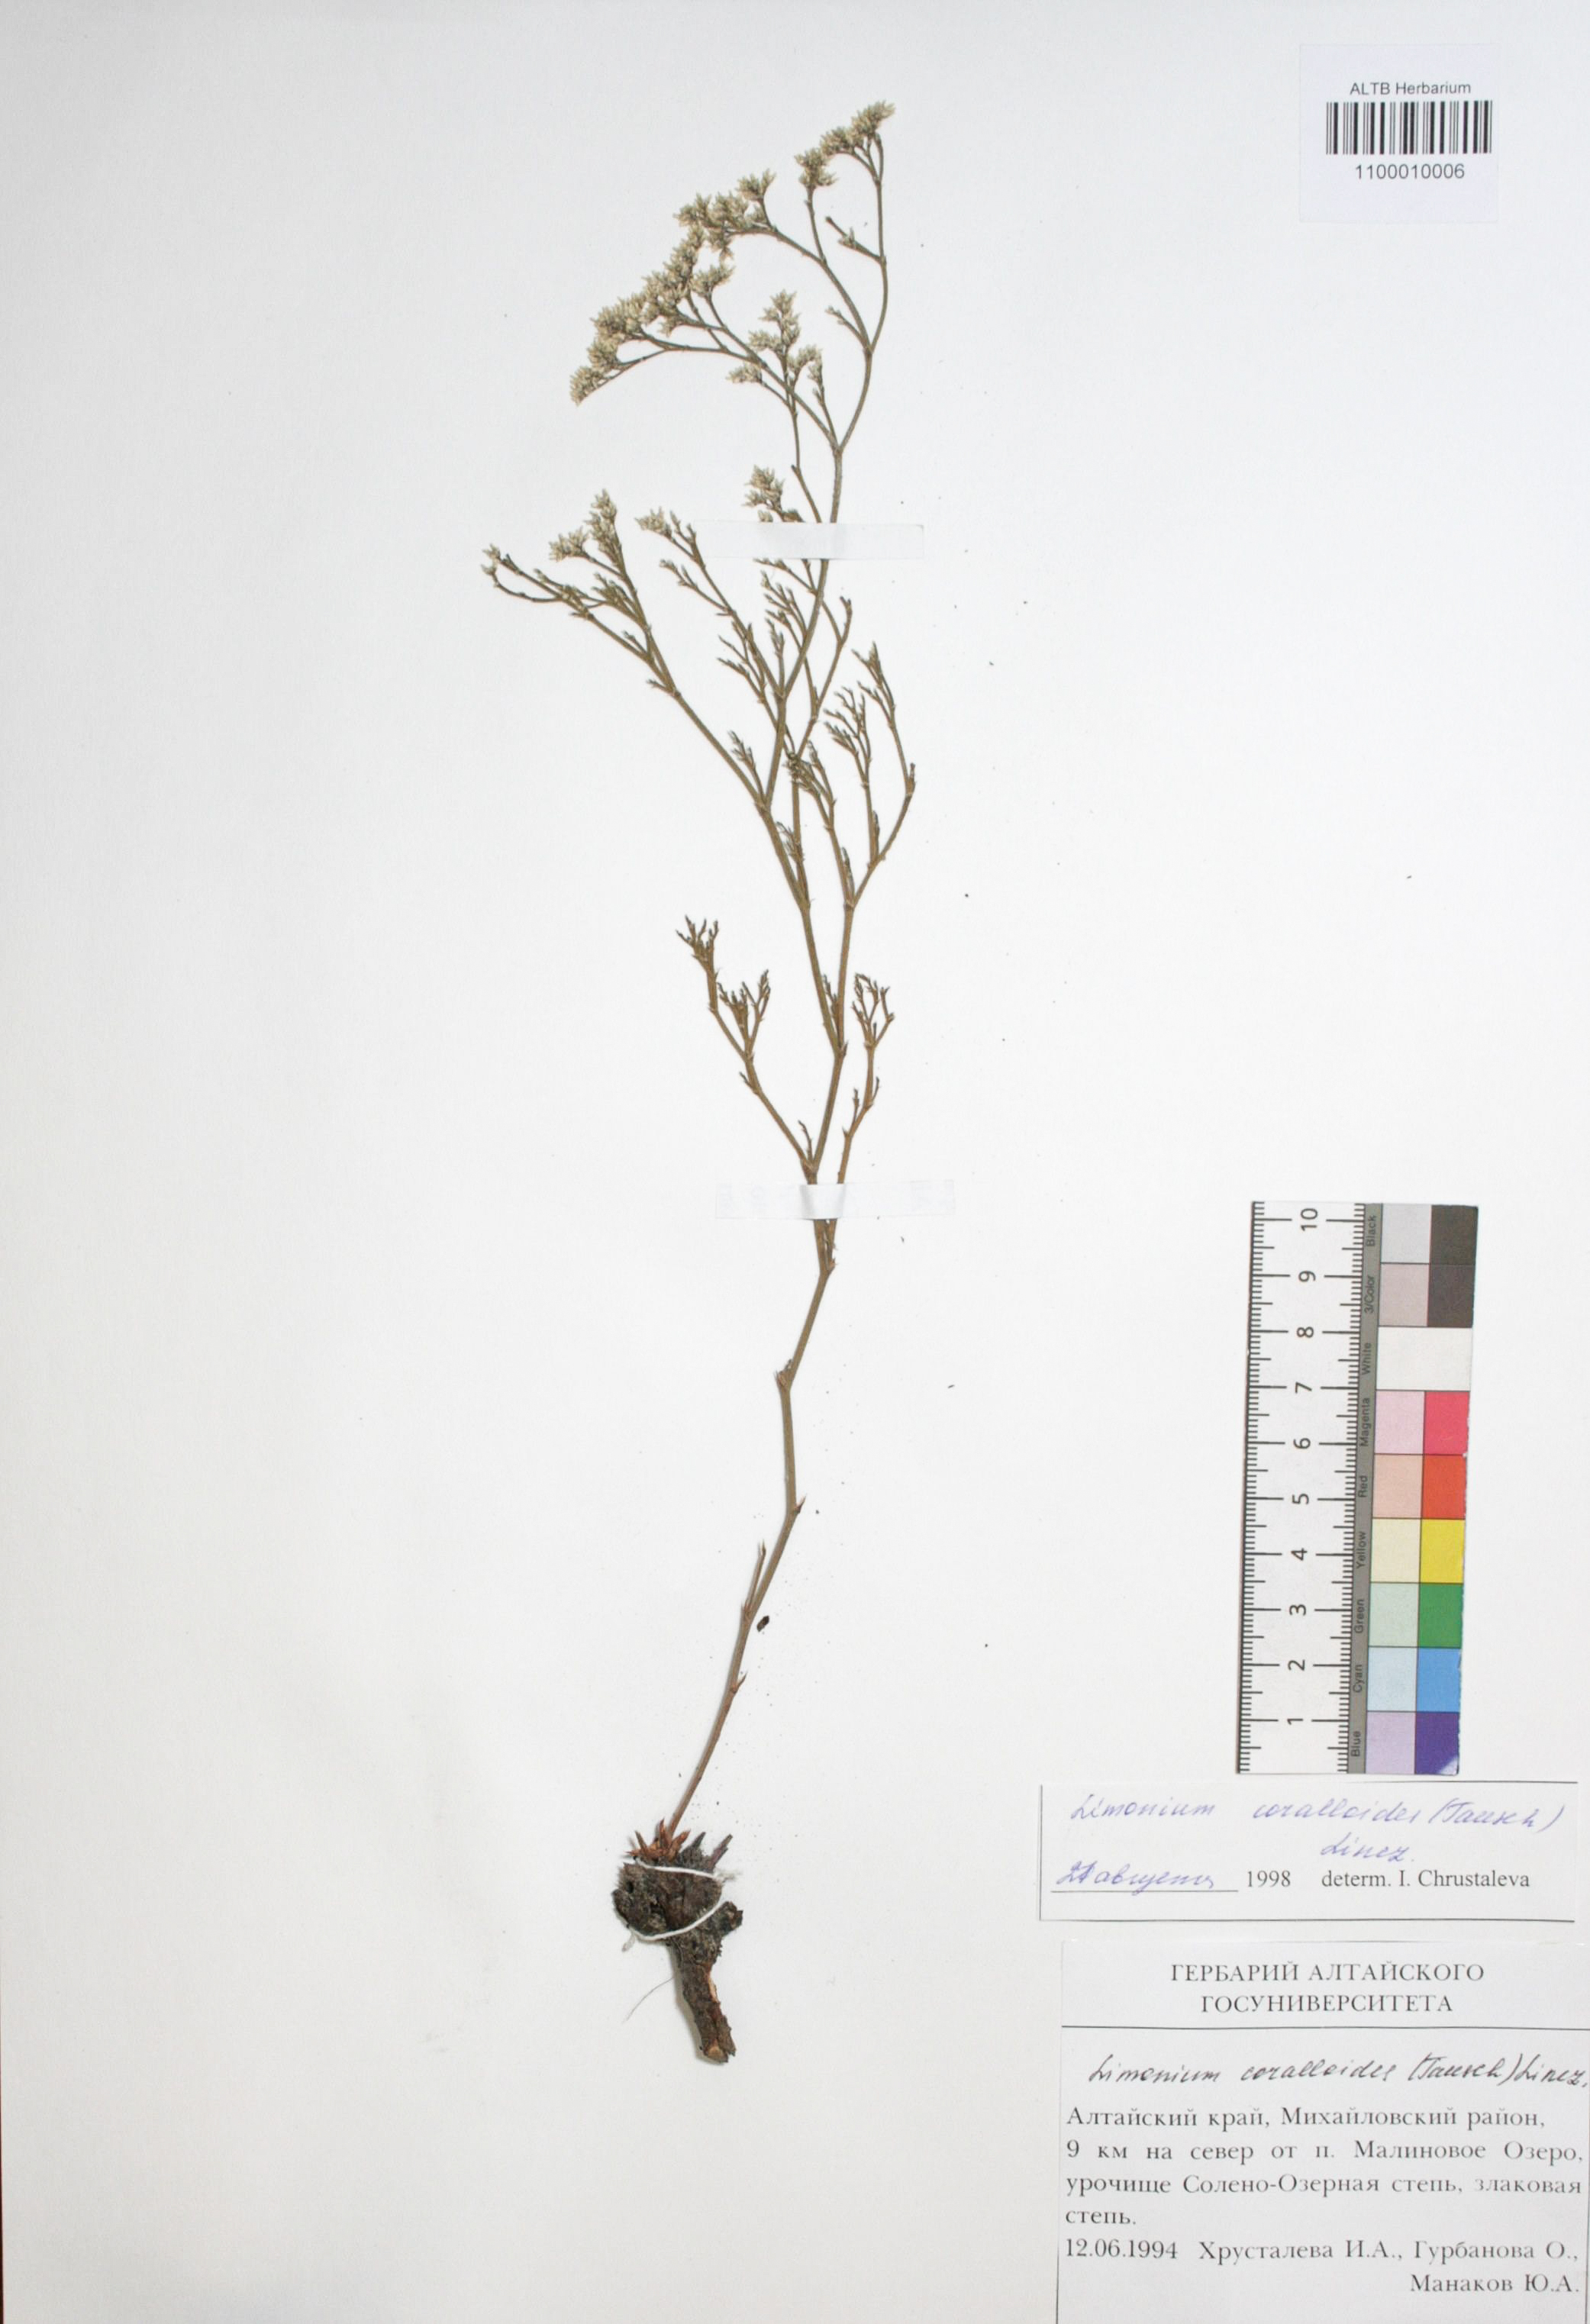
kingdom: Plantae
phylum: Tracheophyta
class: Magnoliopsida
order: Caryophyllales
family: Plumbaginaceae
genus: Limonium
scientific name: Limonium coralloides
